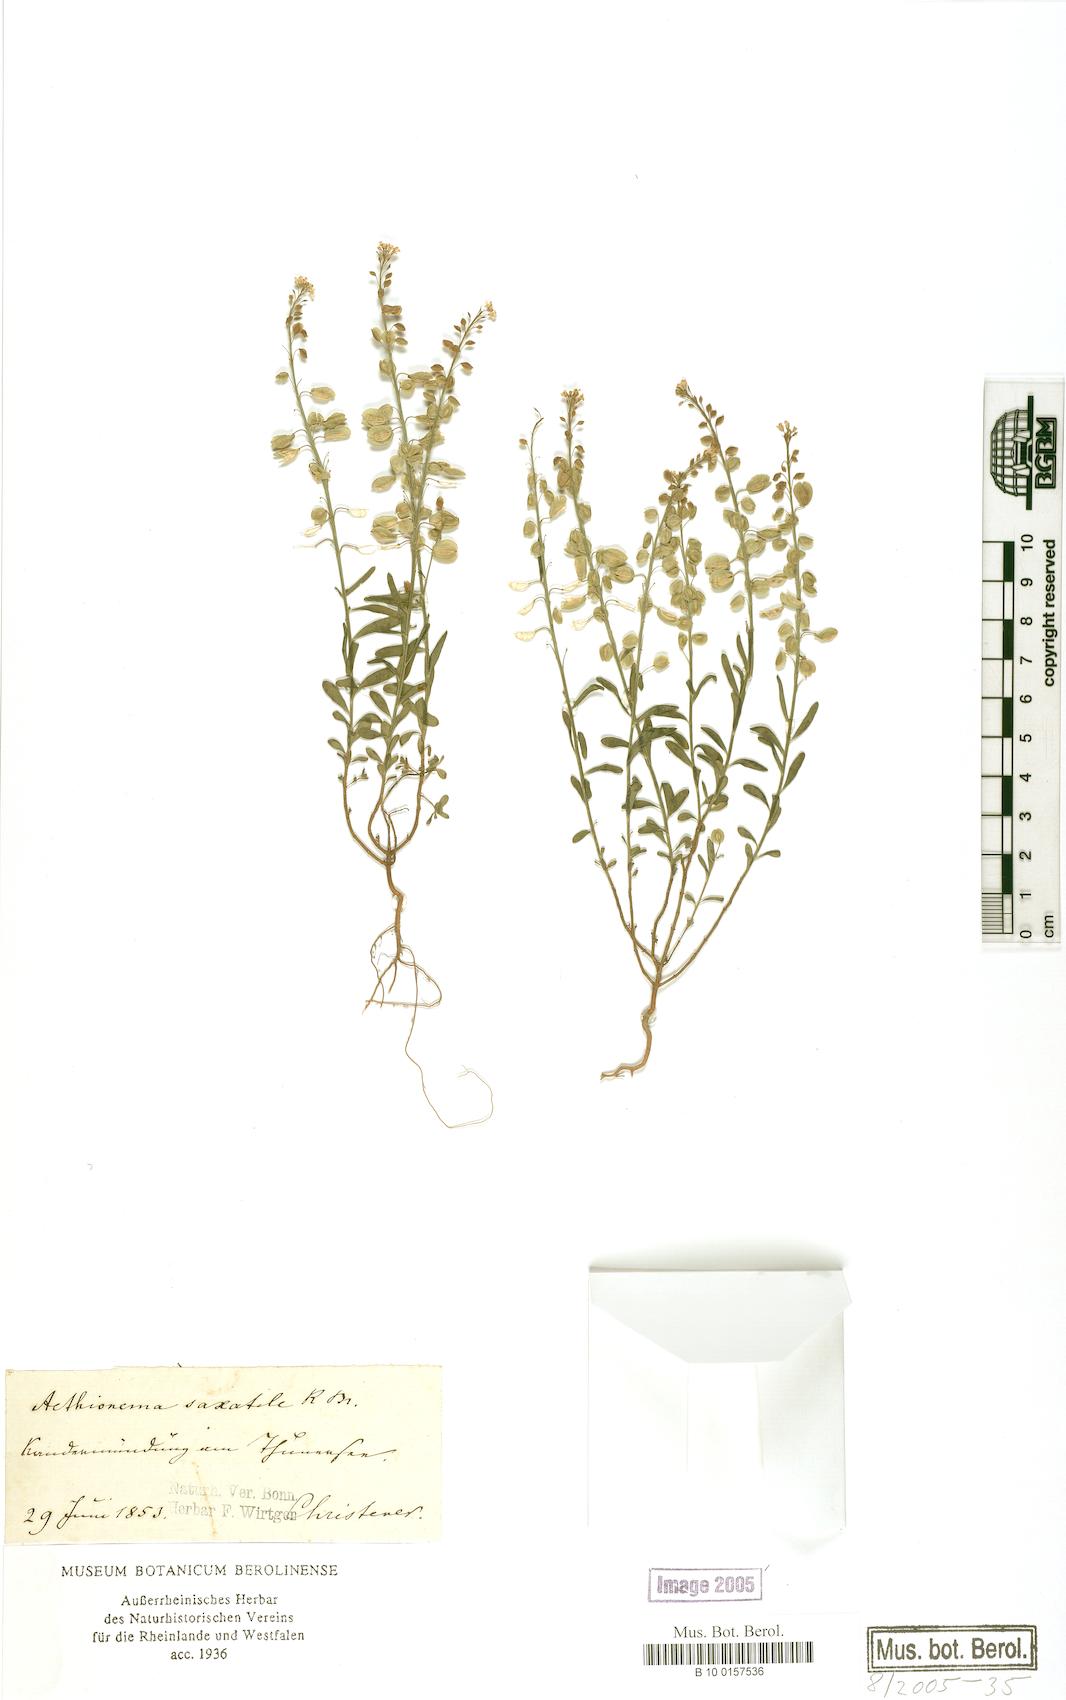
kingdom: Plantae
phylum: Tracheophyta
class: Magnoliopsida
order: Brassicales
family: Brassicaceae
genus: Aethionema
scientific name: Aethionema saxatile
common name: Burnt candytuft
